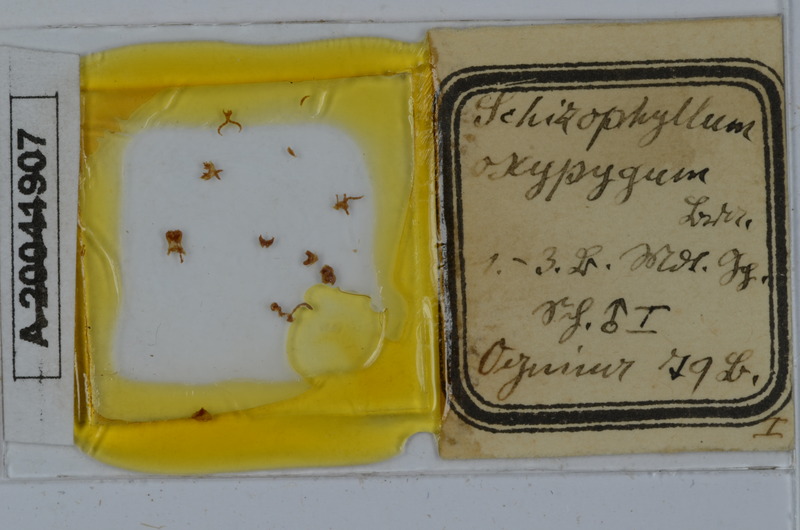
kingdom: Animalia
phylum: Arthropoda
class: Diplopoda
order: Julida
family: Julidae
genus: Ommatoiulus
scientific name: Ommatoiulus oxypygus
